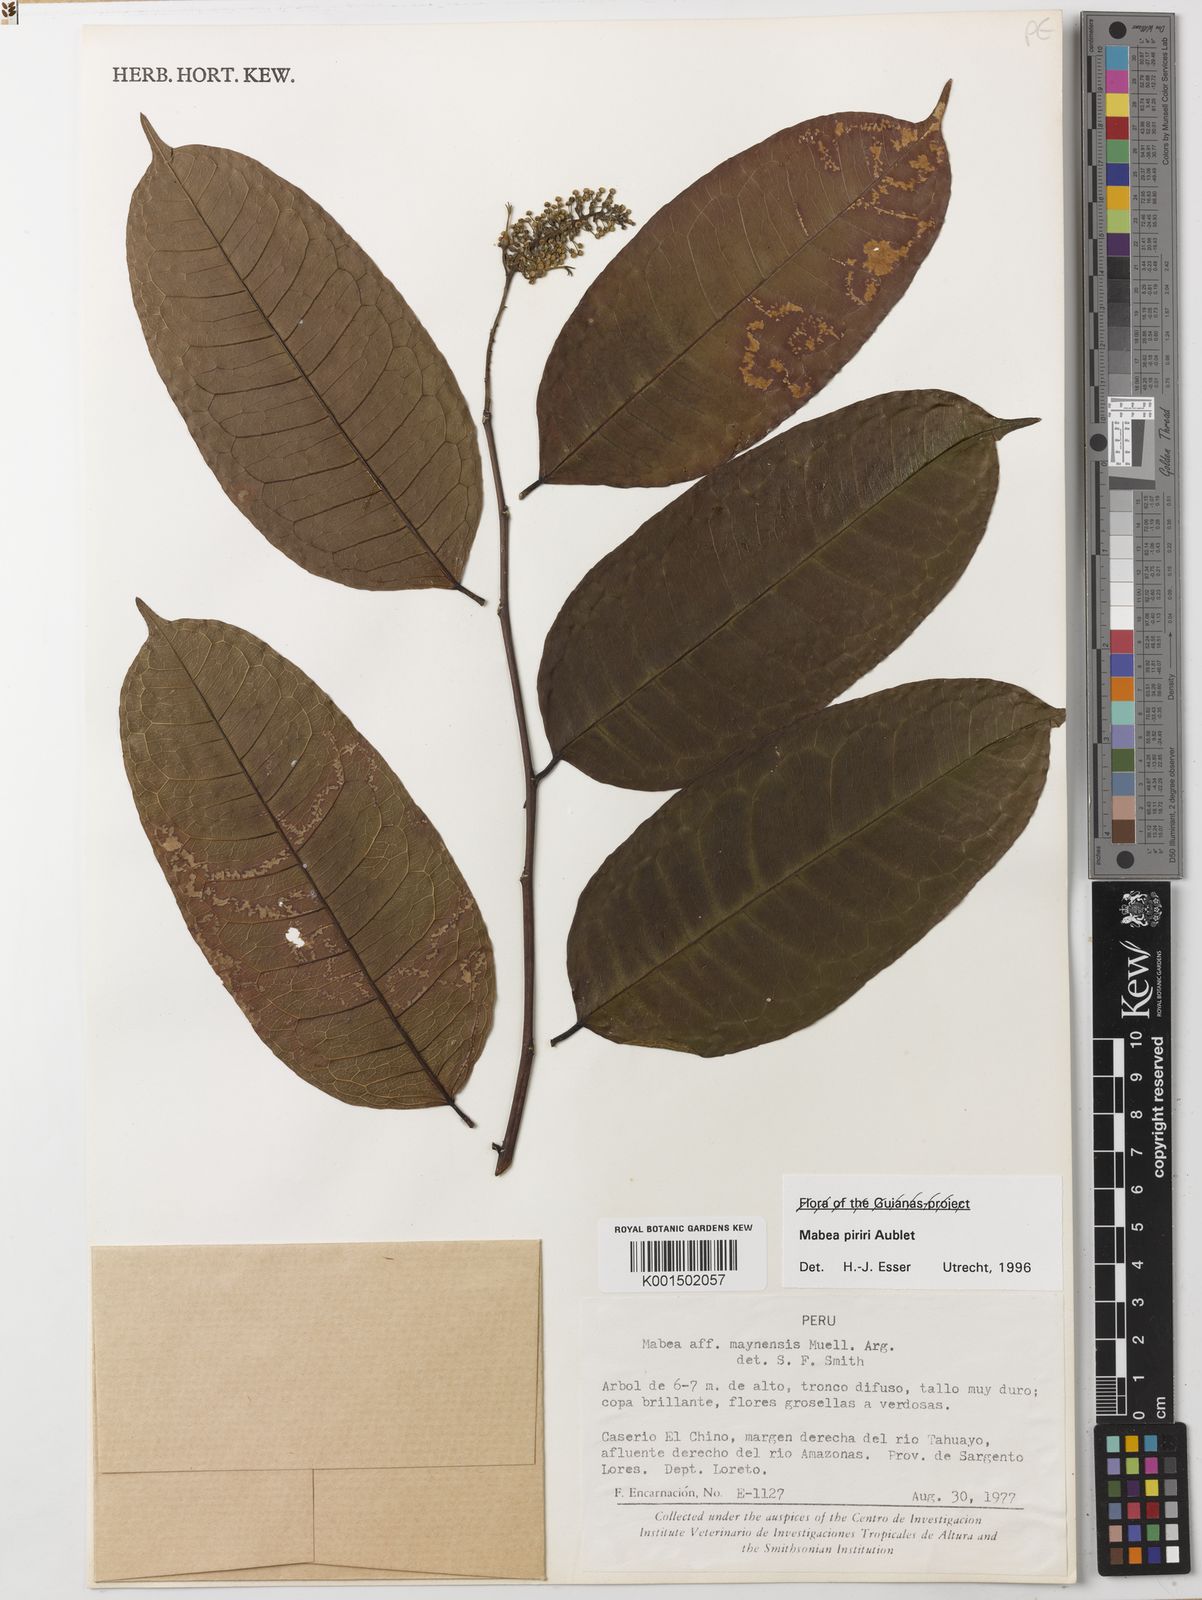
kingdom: Plantae
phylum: Tracheophyta
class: Magnoliopsida
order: Malpighiales
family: Euphorbiaceae
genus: Mabea
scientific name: Mabea piriri
